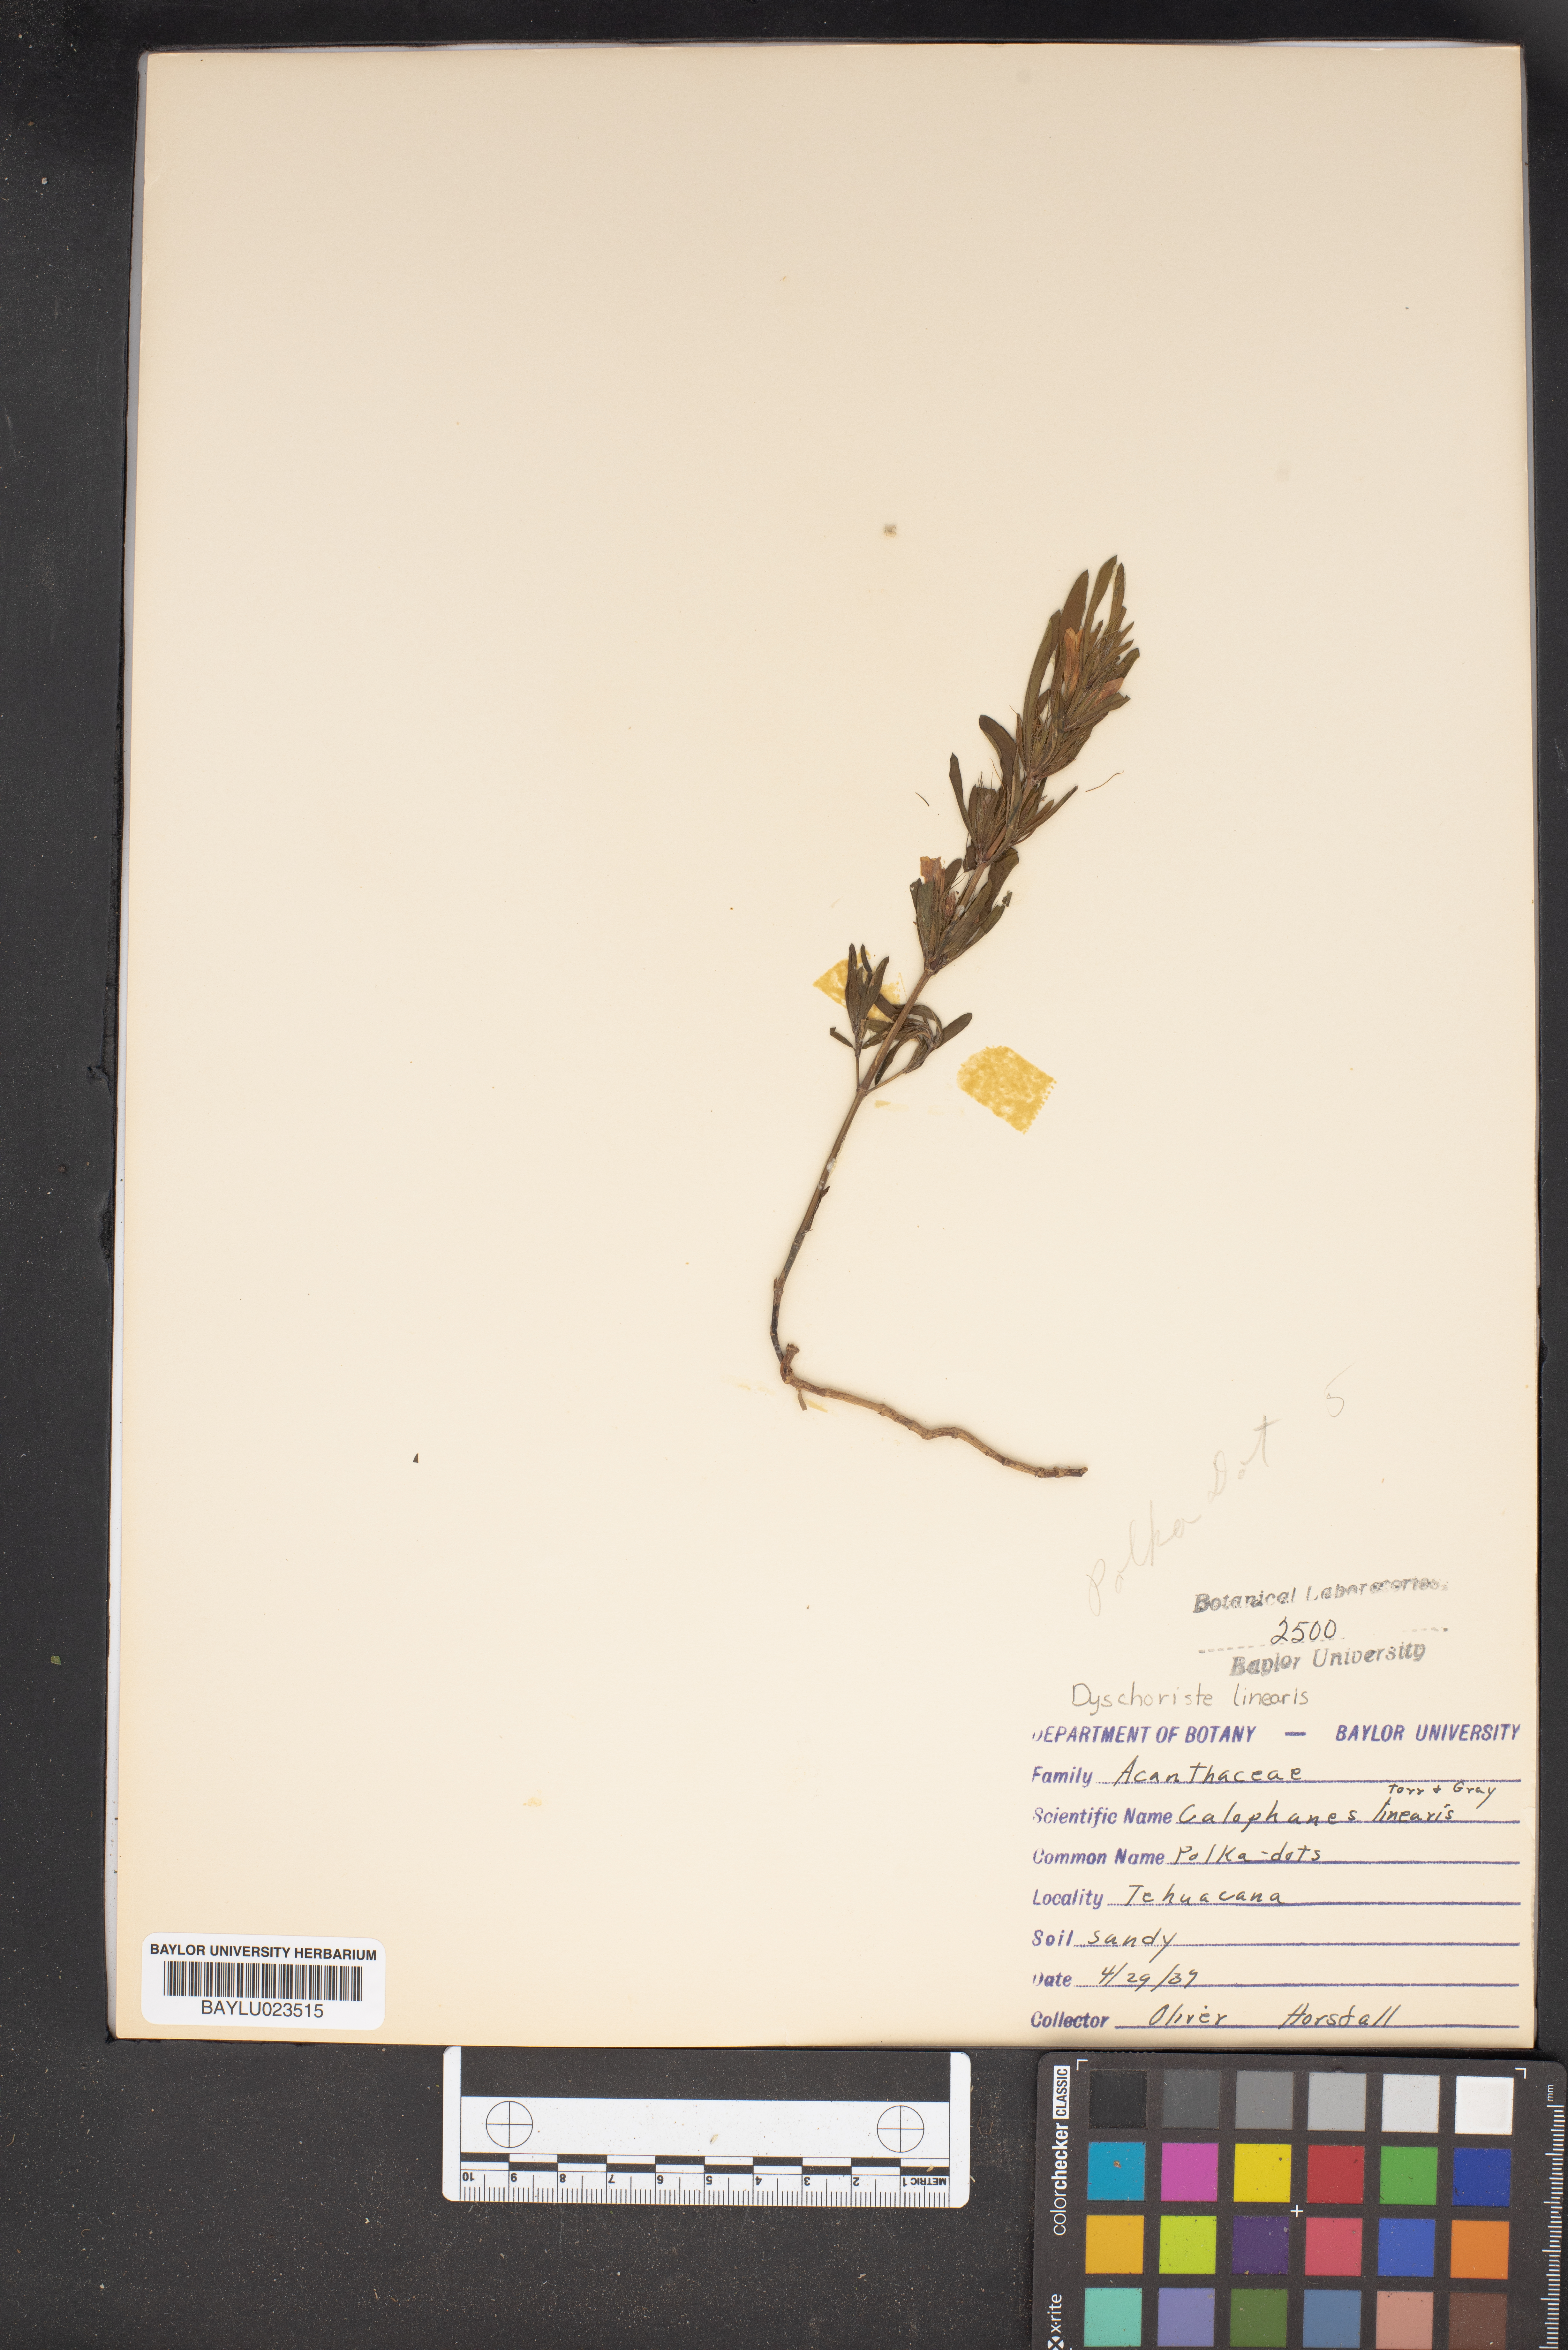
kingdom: Plantae
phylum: Tracheophyta
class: Magnoliopsida
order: Lamiales
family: Acanthaceae
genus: Dyschoriste
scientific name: Dyschoriste linearis
